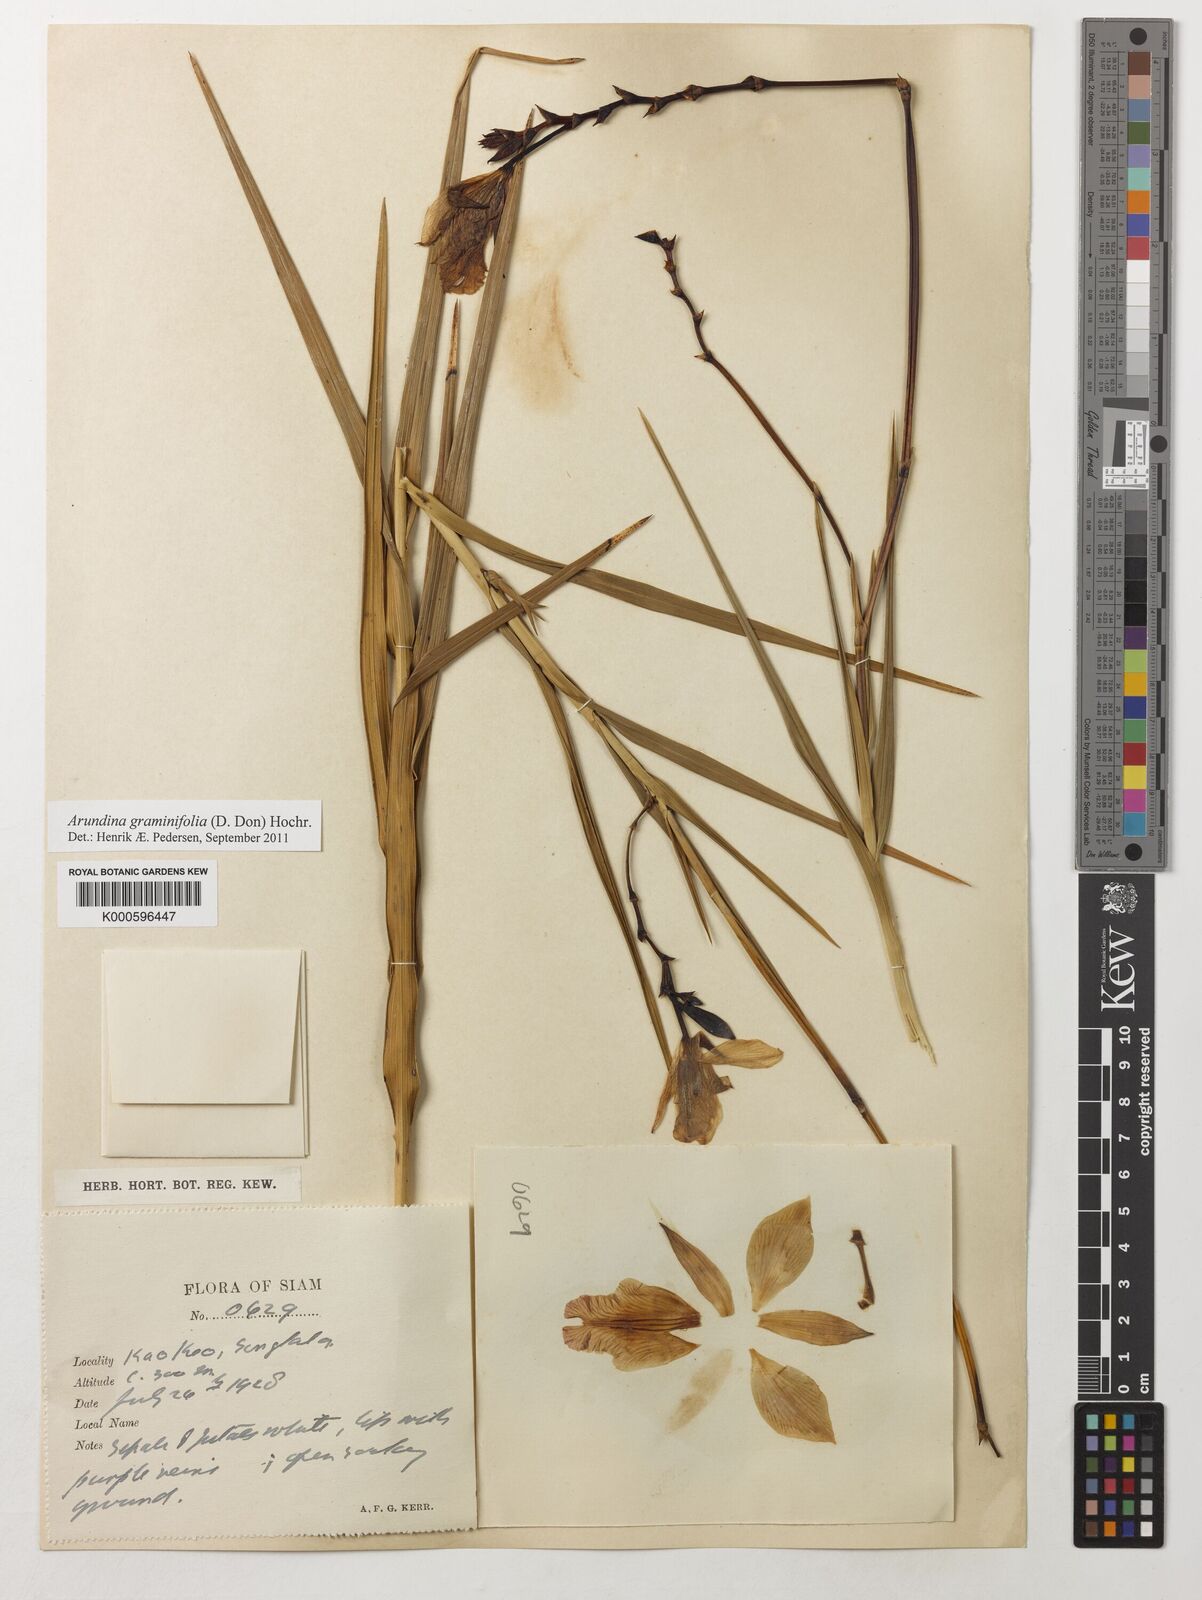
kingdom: Plantae
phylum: Tracheophyta
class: Liliopsida
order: Asparagales
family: Orchidaceae
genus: Arundina
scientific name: Arundina graminifolia
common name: Bamboo orchid
